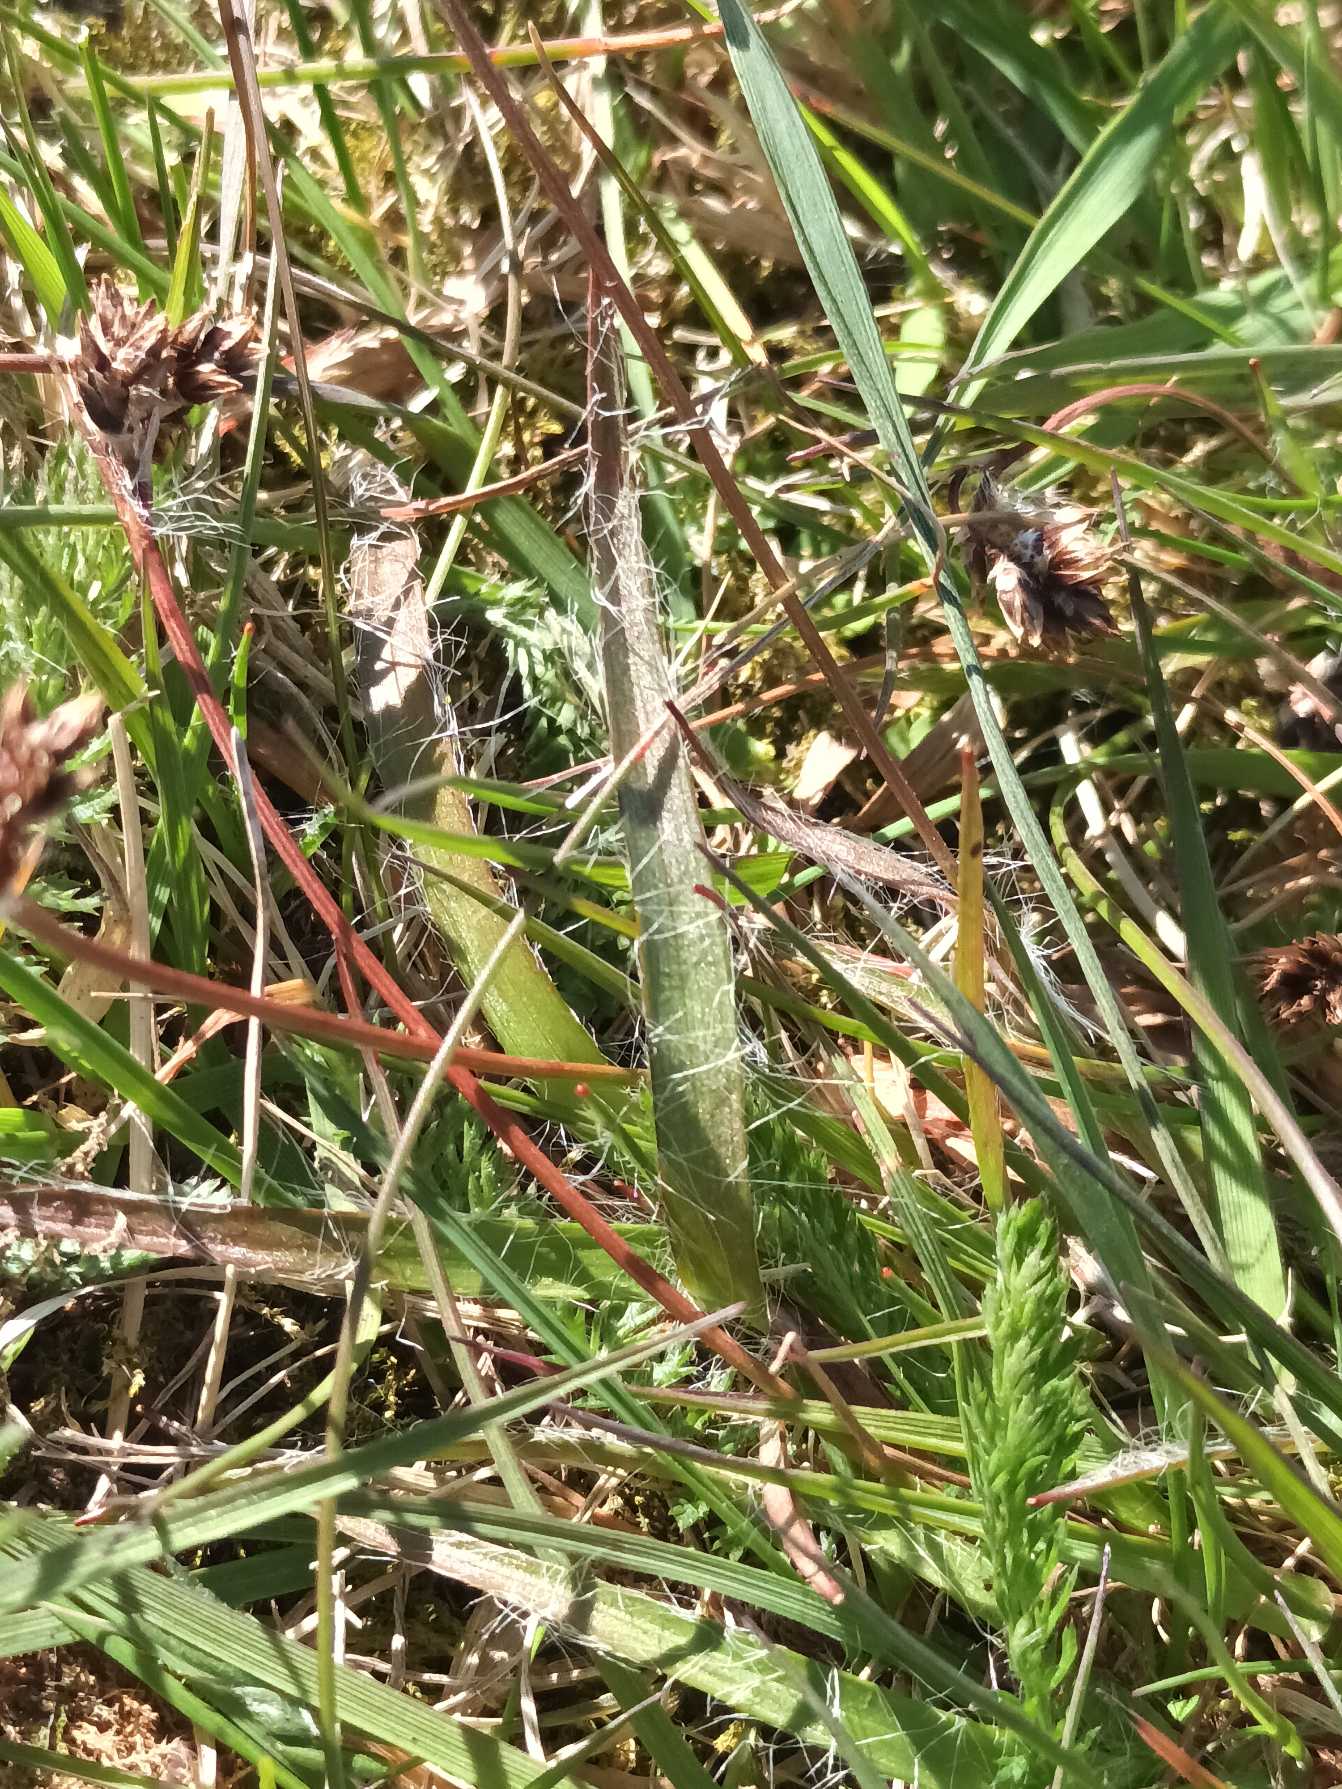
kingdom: Plantae
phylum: Tracheophyta
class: Liliopsida
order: Poales
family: Juncaceae
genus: Luzula
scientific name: Luzula campestris
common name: Mark-frytle
